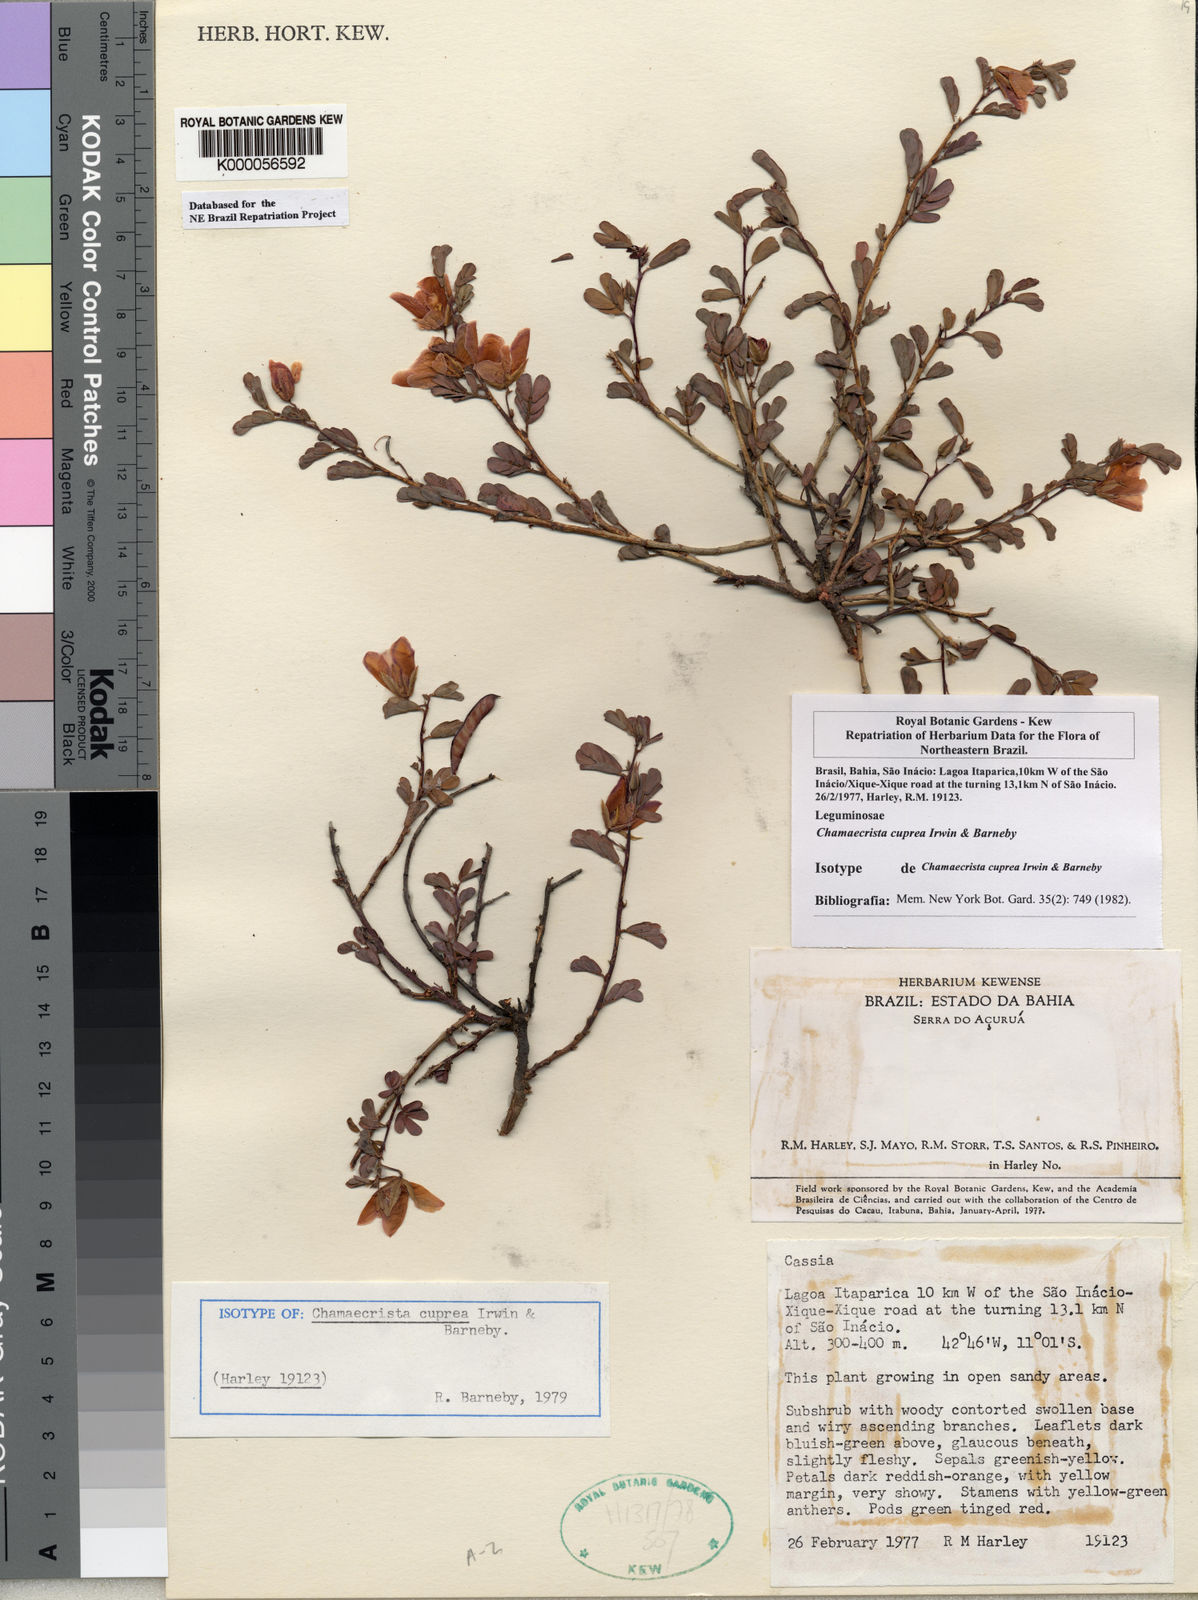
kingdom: Plantae
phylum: Tracheophyta
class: Magnoliopsida
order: Fabales
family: Fabaceae
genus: Chamaecrista
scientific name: Chamaecrista cuprea
